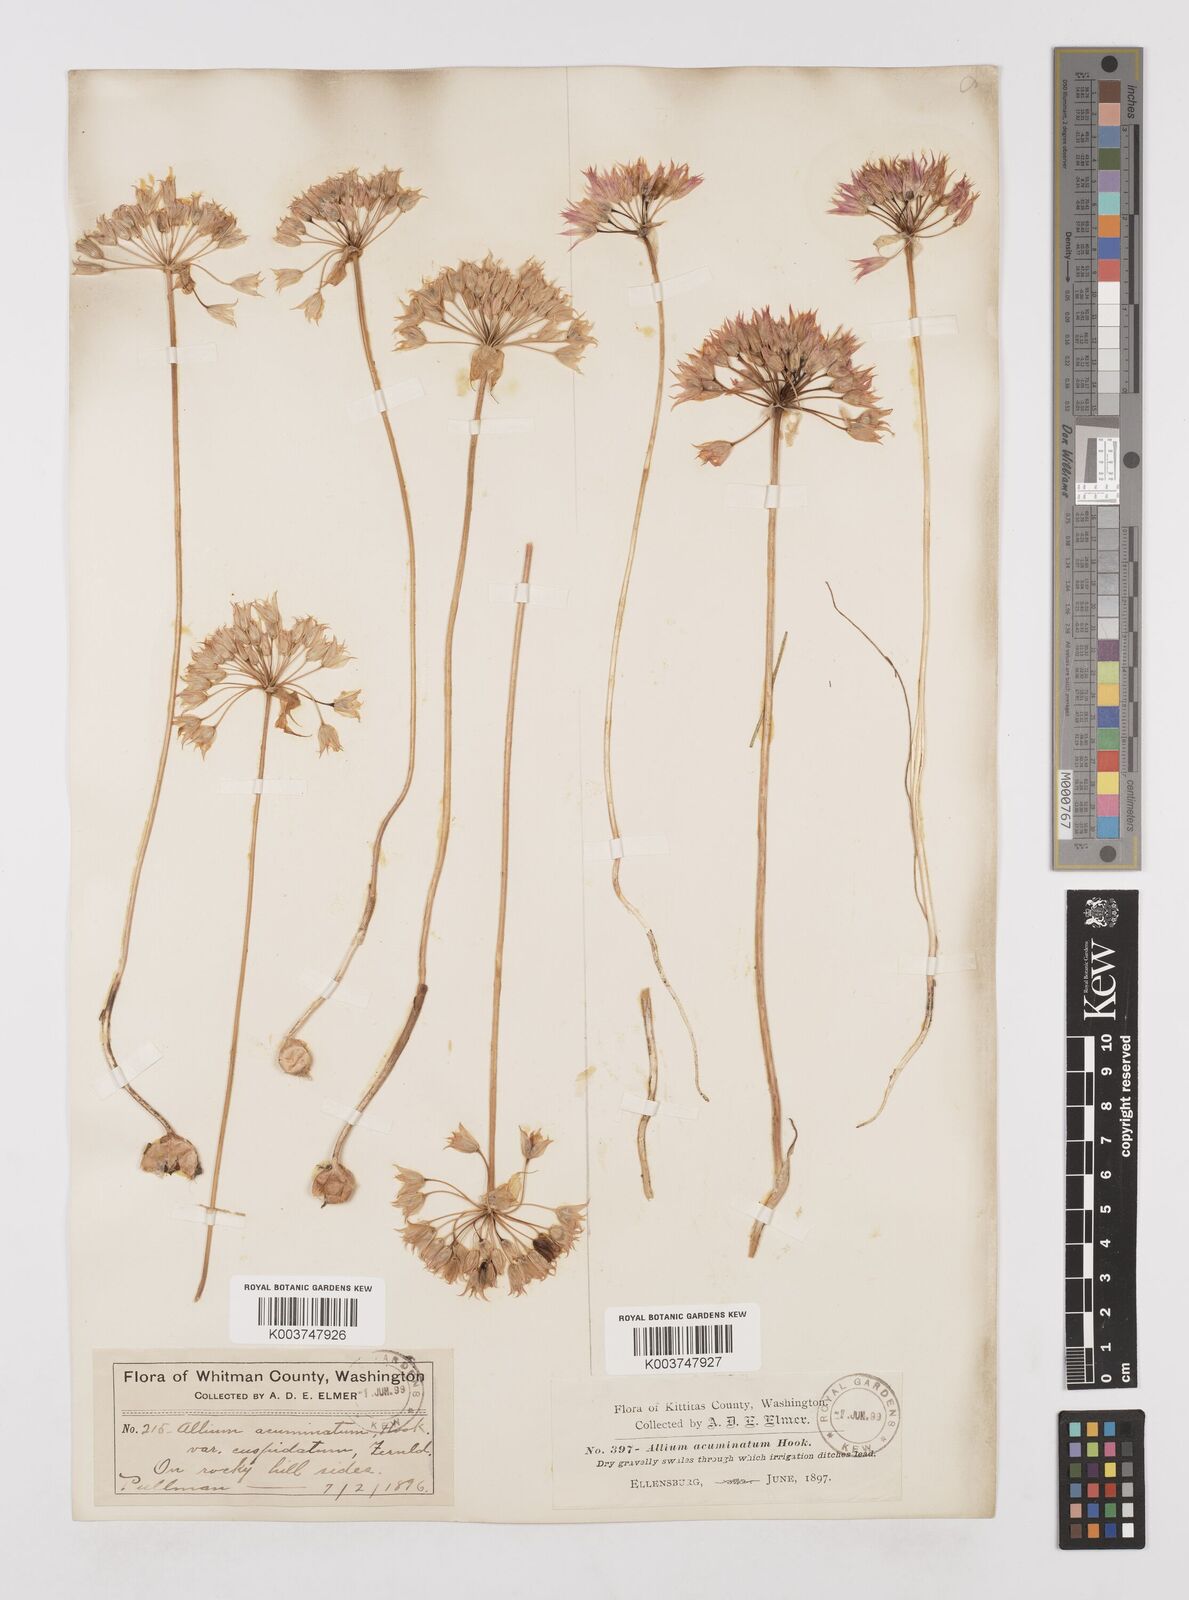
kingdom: Plantae
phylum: Tracheophyta
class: Liliopsida
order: Asparagales
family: Amaryllidaceae
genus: Allium
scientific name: Allium acuminatum
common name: Hooker's onion
